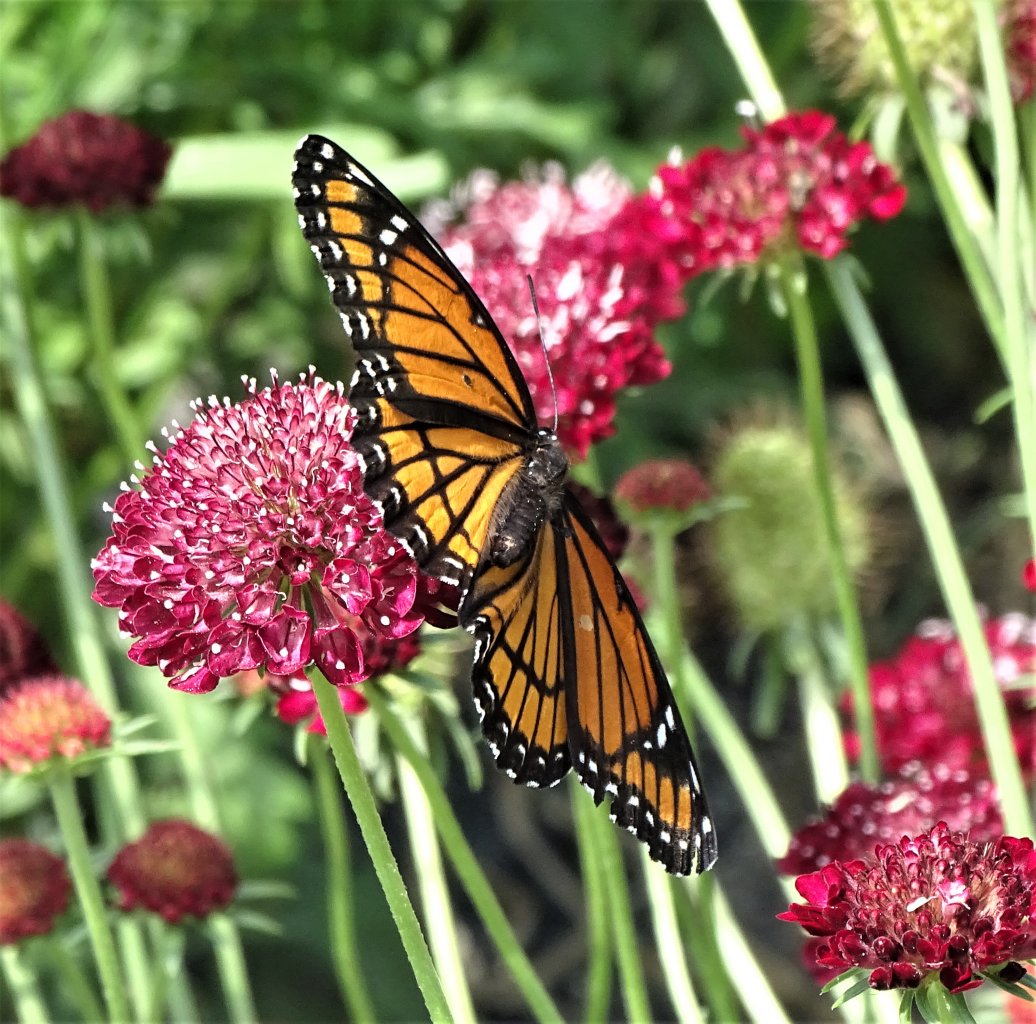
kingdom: Animalia
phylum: Arthropoda
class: Insecta
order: Lepidoptera
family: Nymphalidae
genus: Limenitis
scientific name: Limenitis archippus
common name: Viceroy
